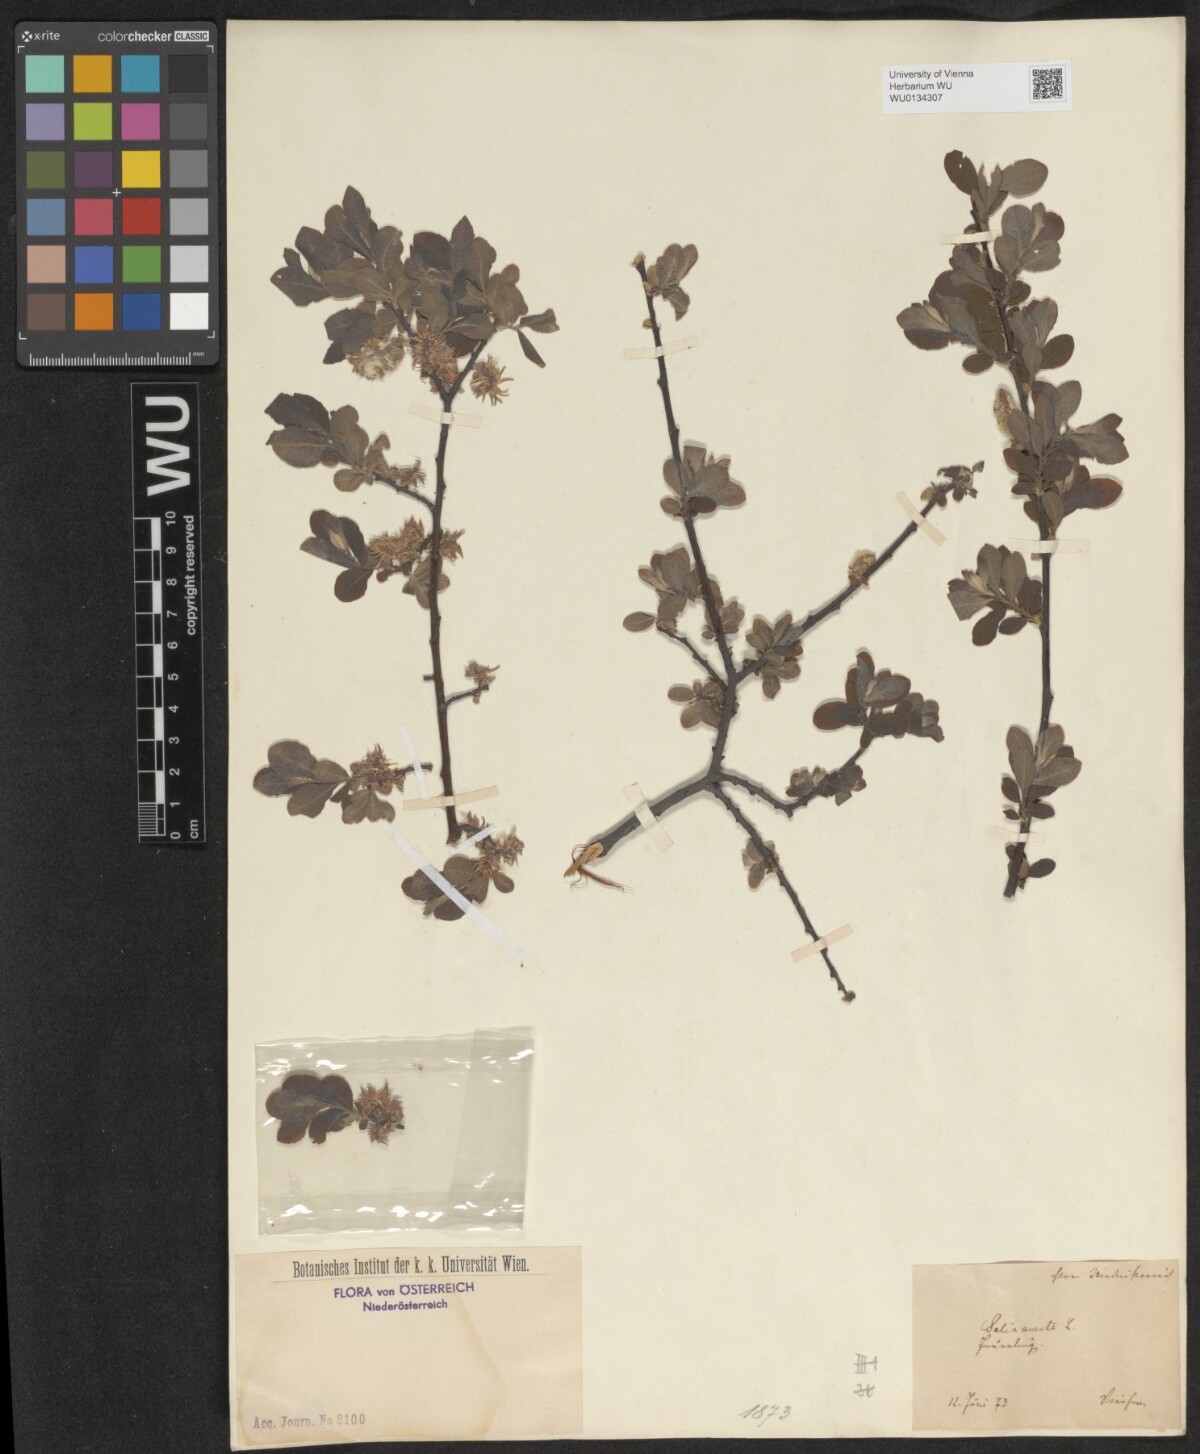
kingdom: Plantae
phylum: Tracheophyta
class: Magnoliopsida
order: Malpighiales
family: Salicaceae
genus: Salix
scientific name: Salix aurita
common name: Eared willow
